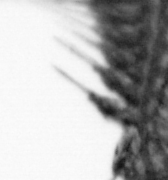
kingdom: Animalia
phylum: Annelida
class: Polychaeta
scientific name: Polychaeta
